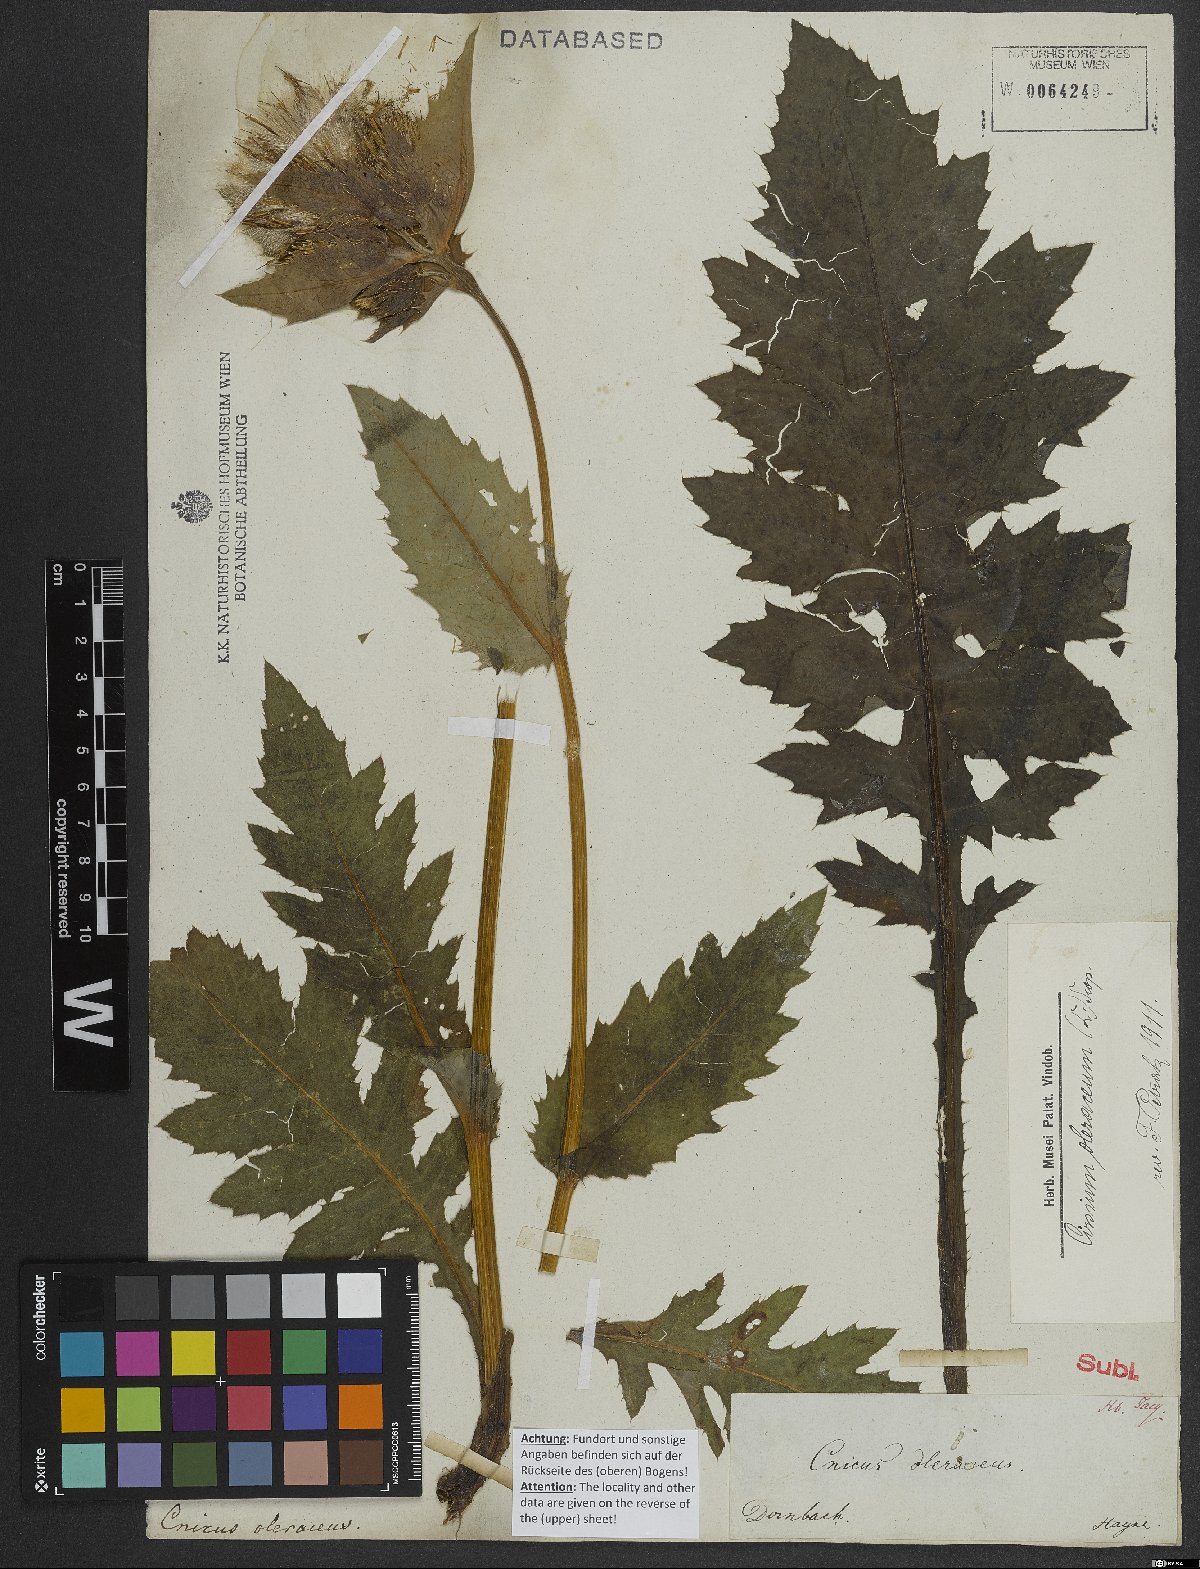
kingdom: Plantae
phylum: Tracheophyta
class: Magnoliopsida
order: Asterales
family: Asteraceae
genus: Cirsium
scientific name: Cirsium oleraceum
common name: Cabbage thistle
